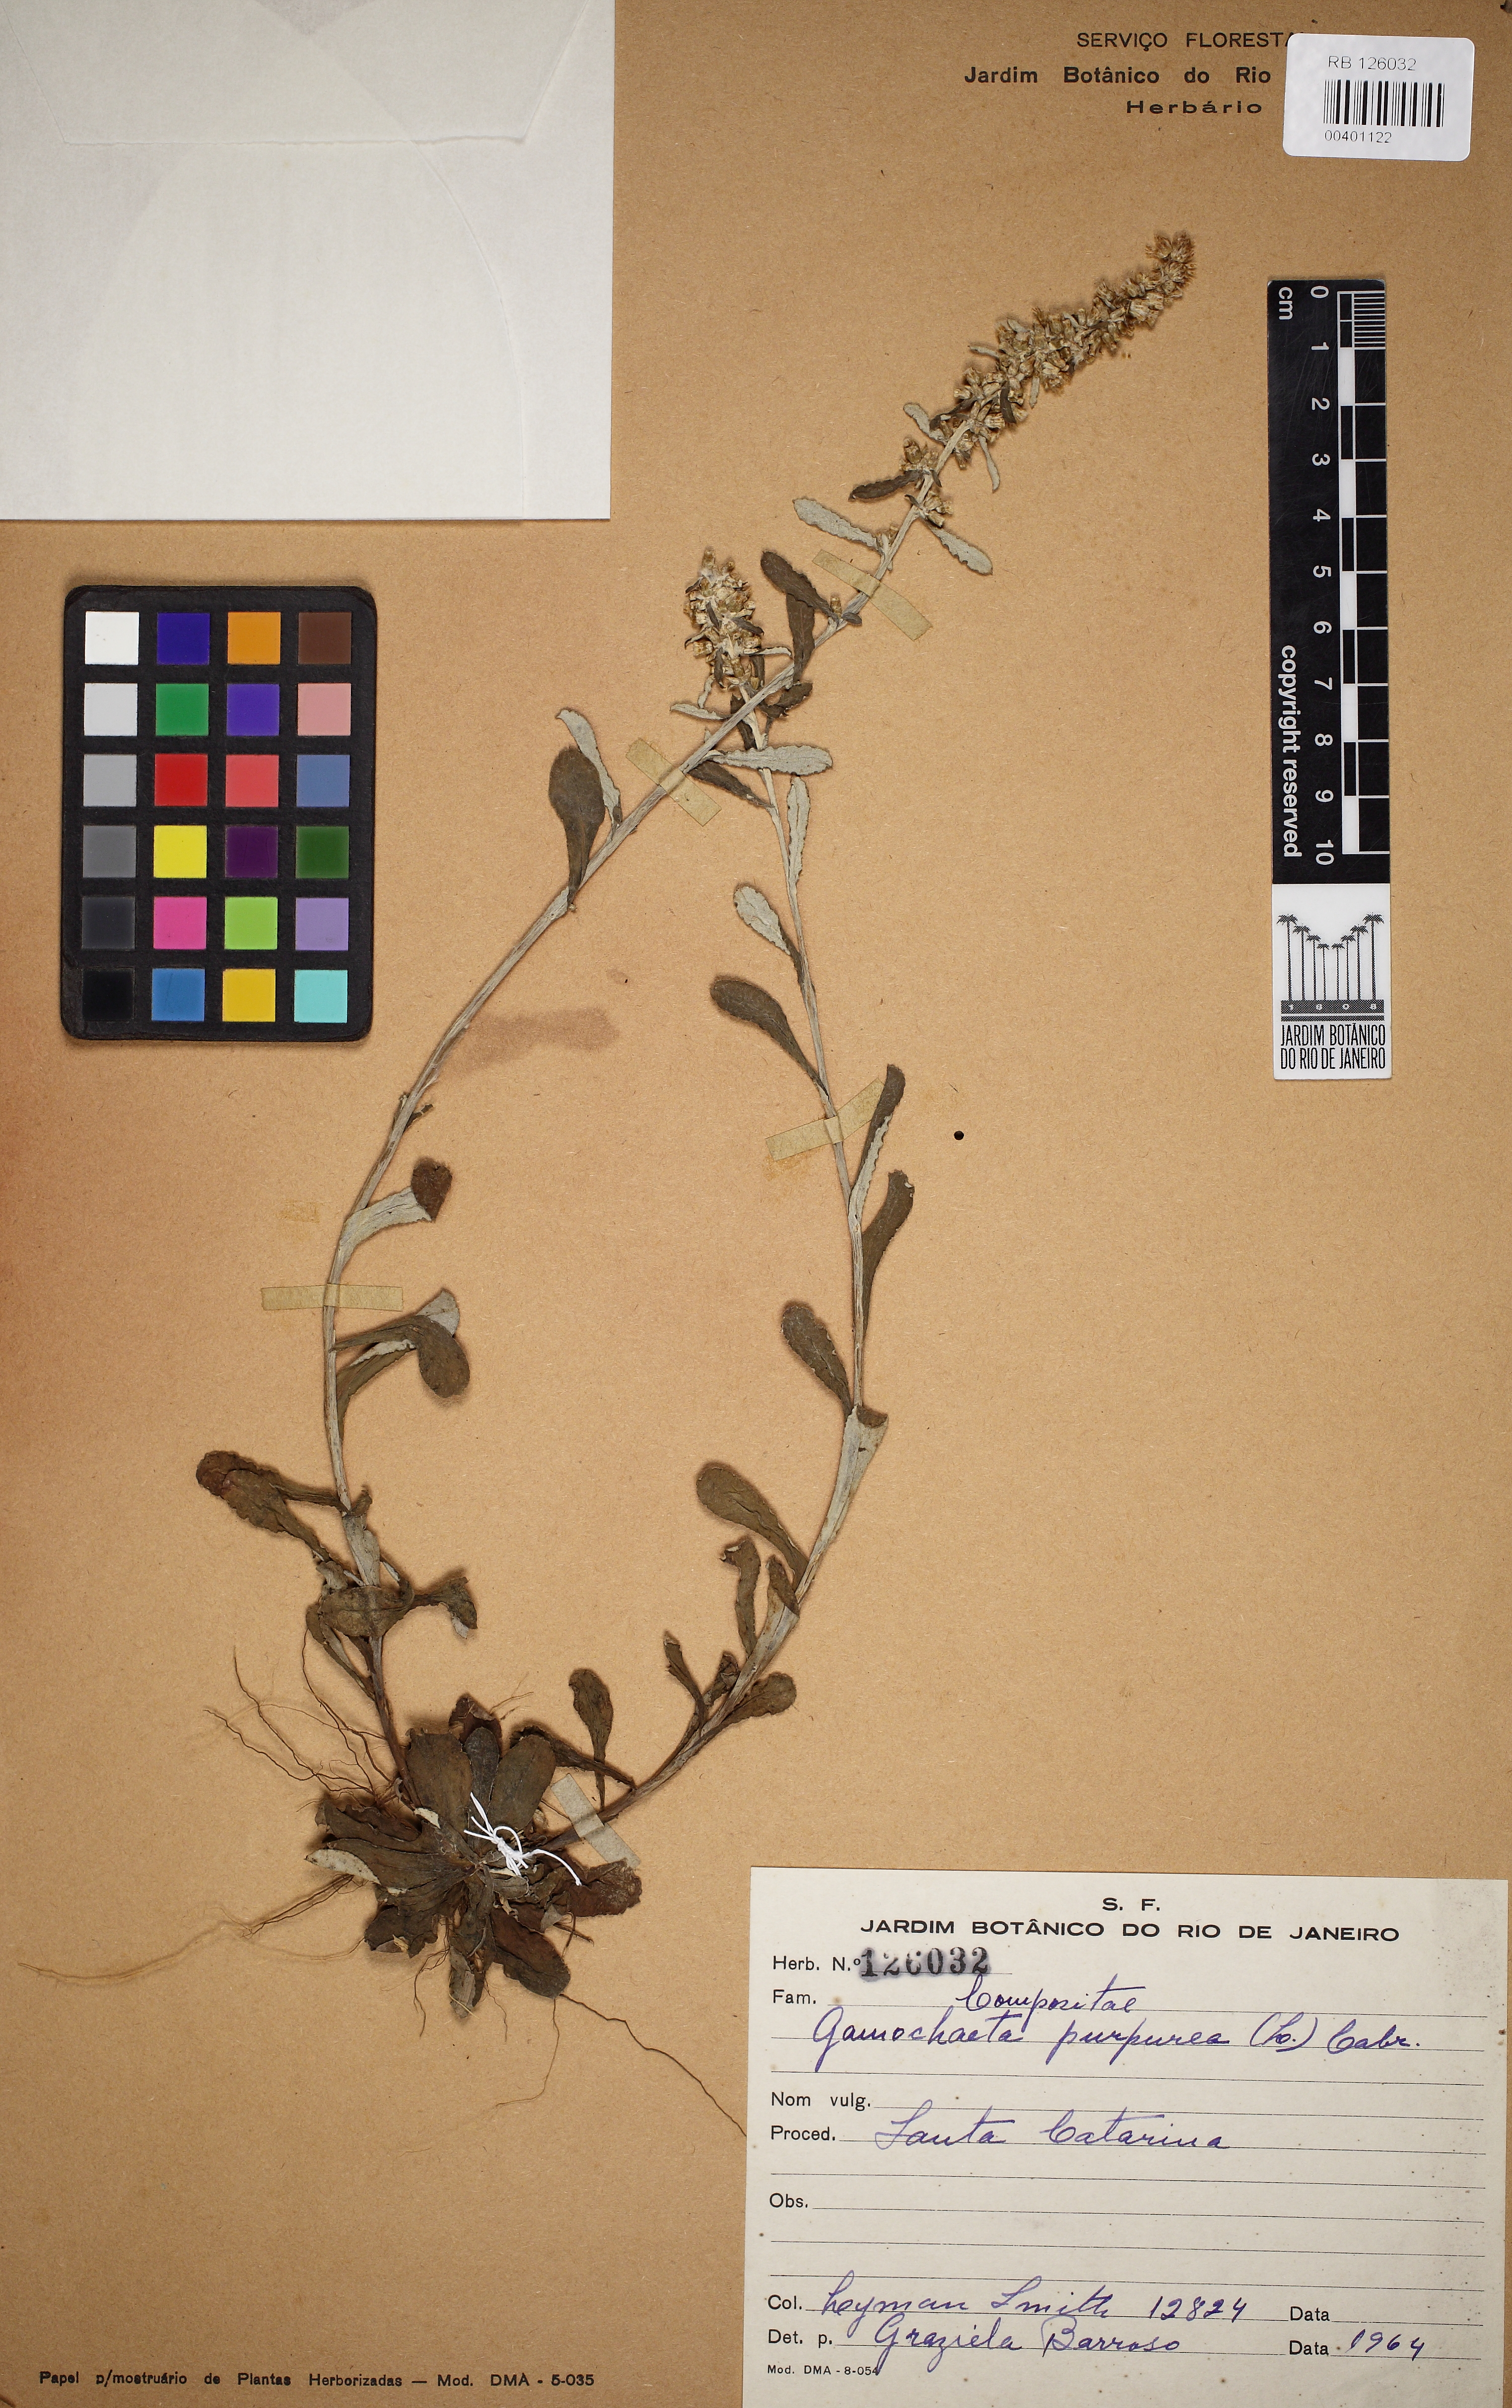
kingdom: Plantae
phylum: Tracheophyta
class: Magnoliopsida
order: Asterales
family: Asteraceae
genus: Gamochaeta
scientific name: Gamochaeta purpurea
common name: Purple cudweed
